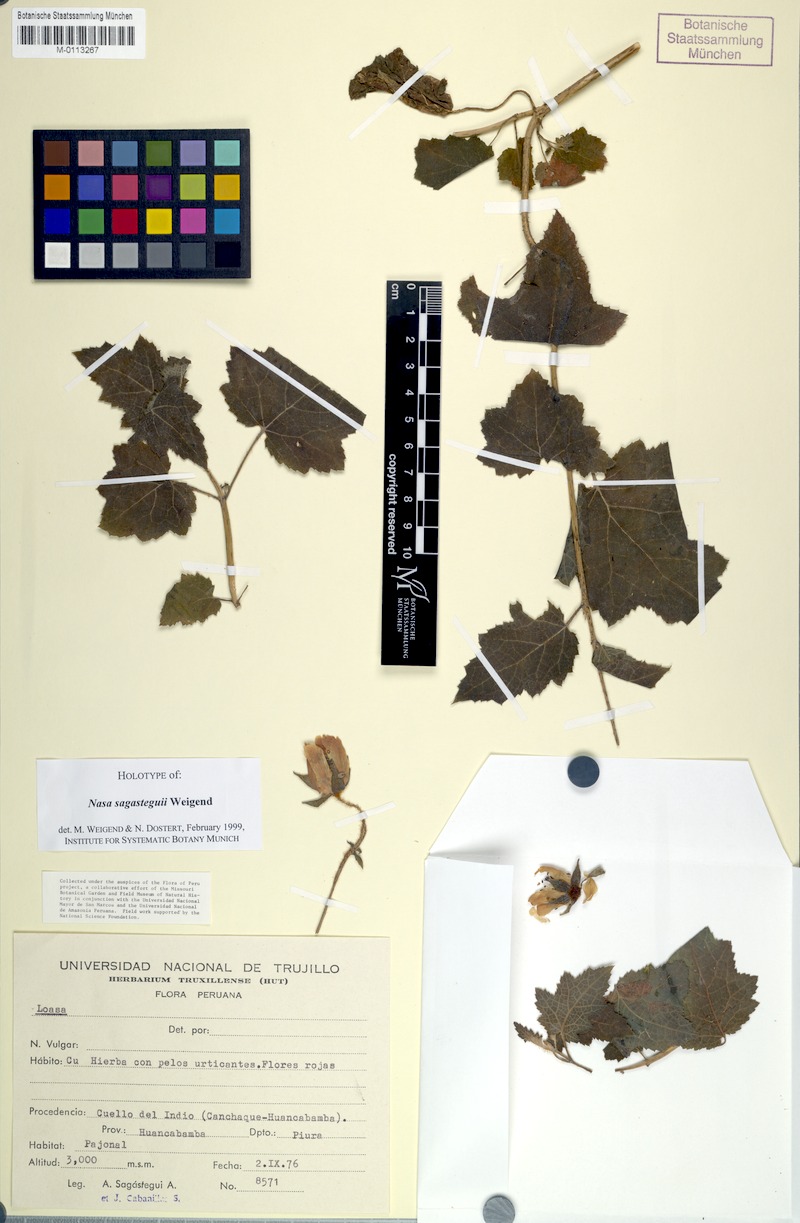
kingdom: Plantae
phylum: Tracheophyta
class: Magnoliopsida
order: Cornales
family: Loasaceae
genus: Nasa
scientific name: Nasa sagasteguii
